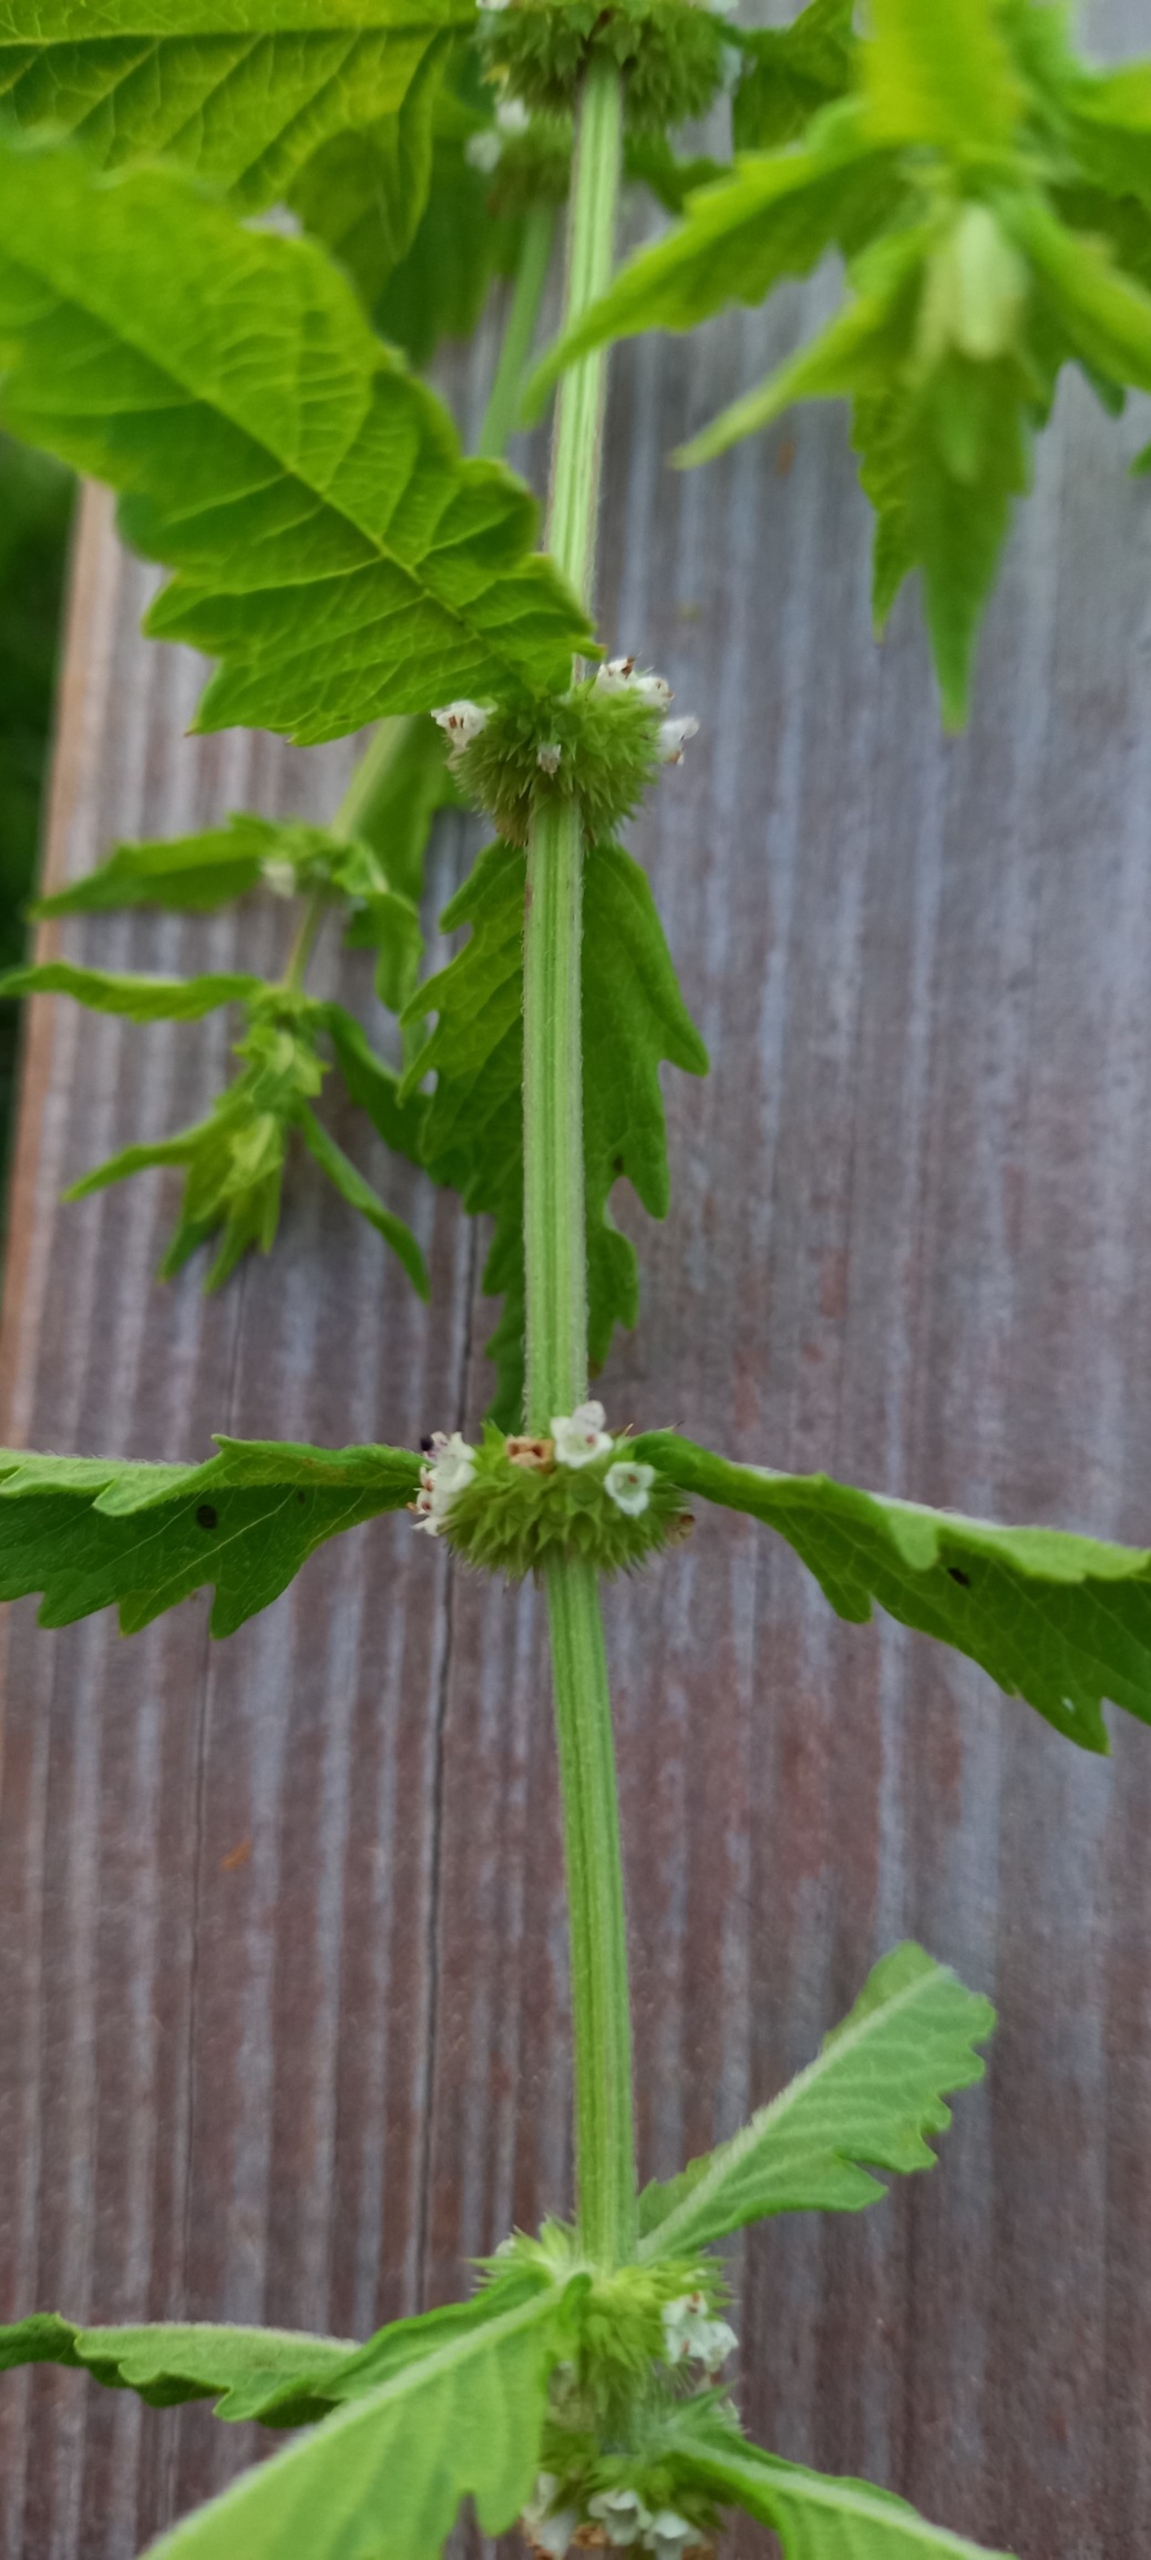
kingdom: Plantae
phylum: Tracheophyta
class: Magnoliopsida
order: Lamiales
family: Lamiaceae
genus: Lycopus
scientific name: Lycopus europaeus
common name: Sværtevæld
